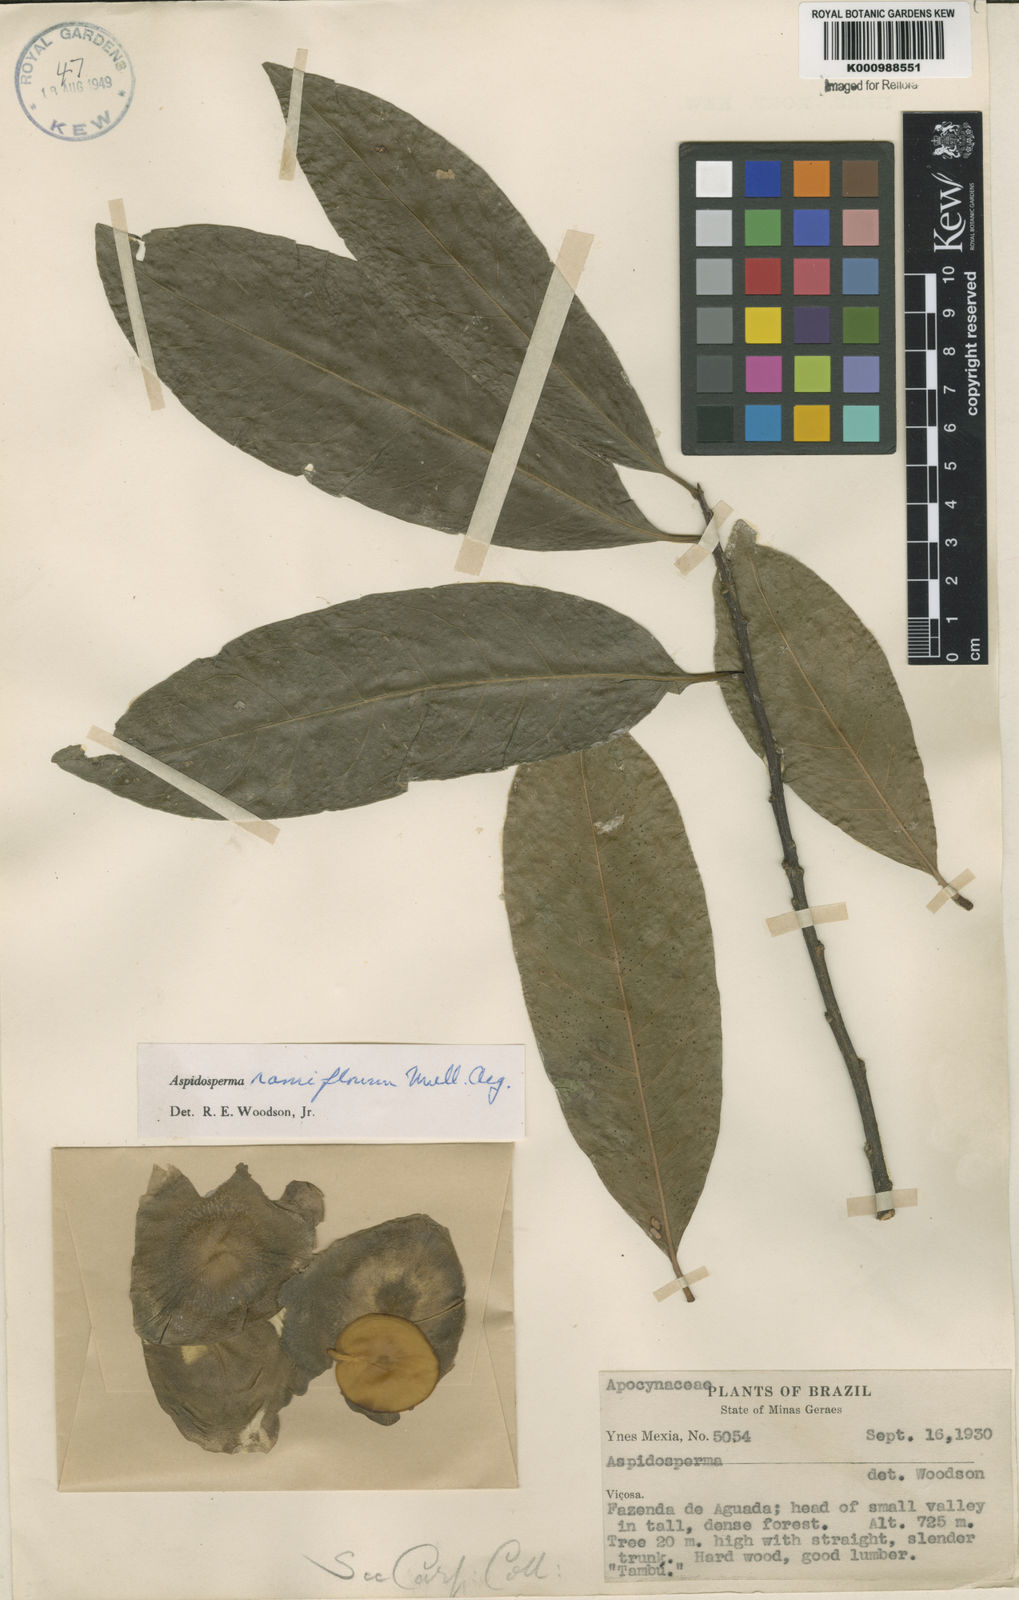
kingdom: Plantae
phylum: Tracheophyta
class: Magnoliopsida
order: Gentianales
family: Apocynaceae
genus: Aspidosperma
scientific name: Aspidosperma
